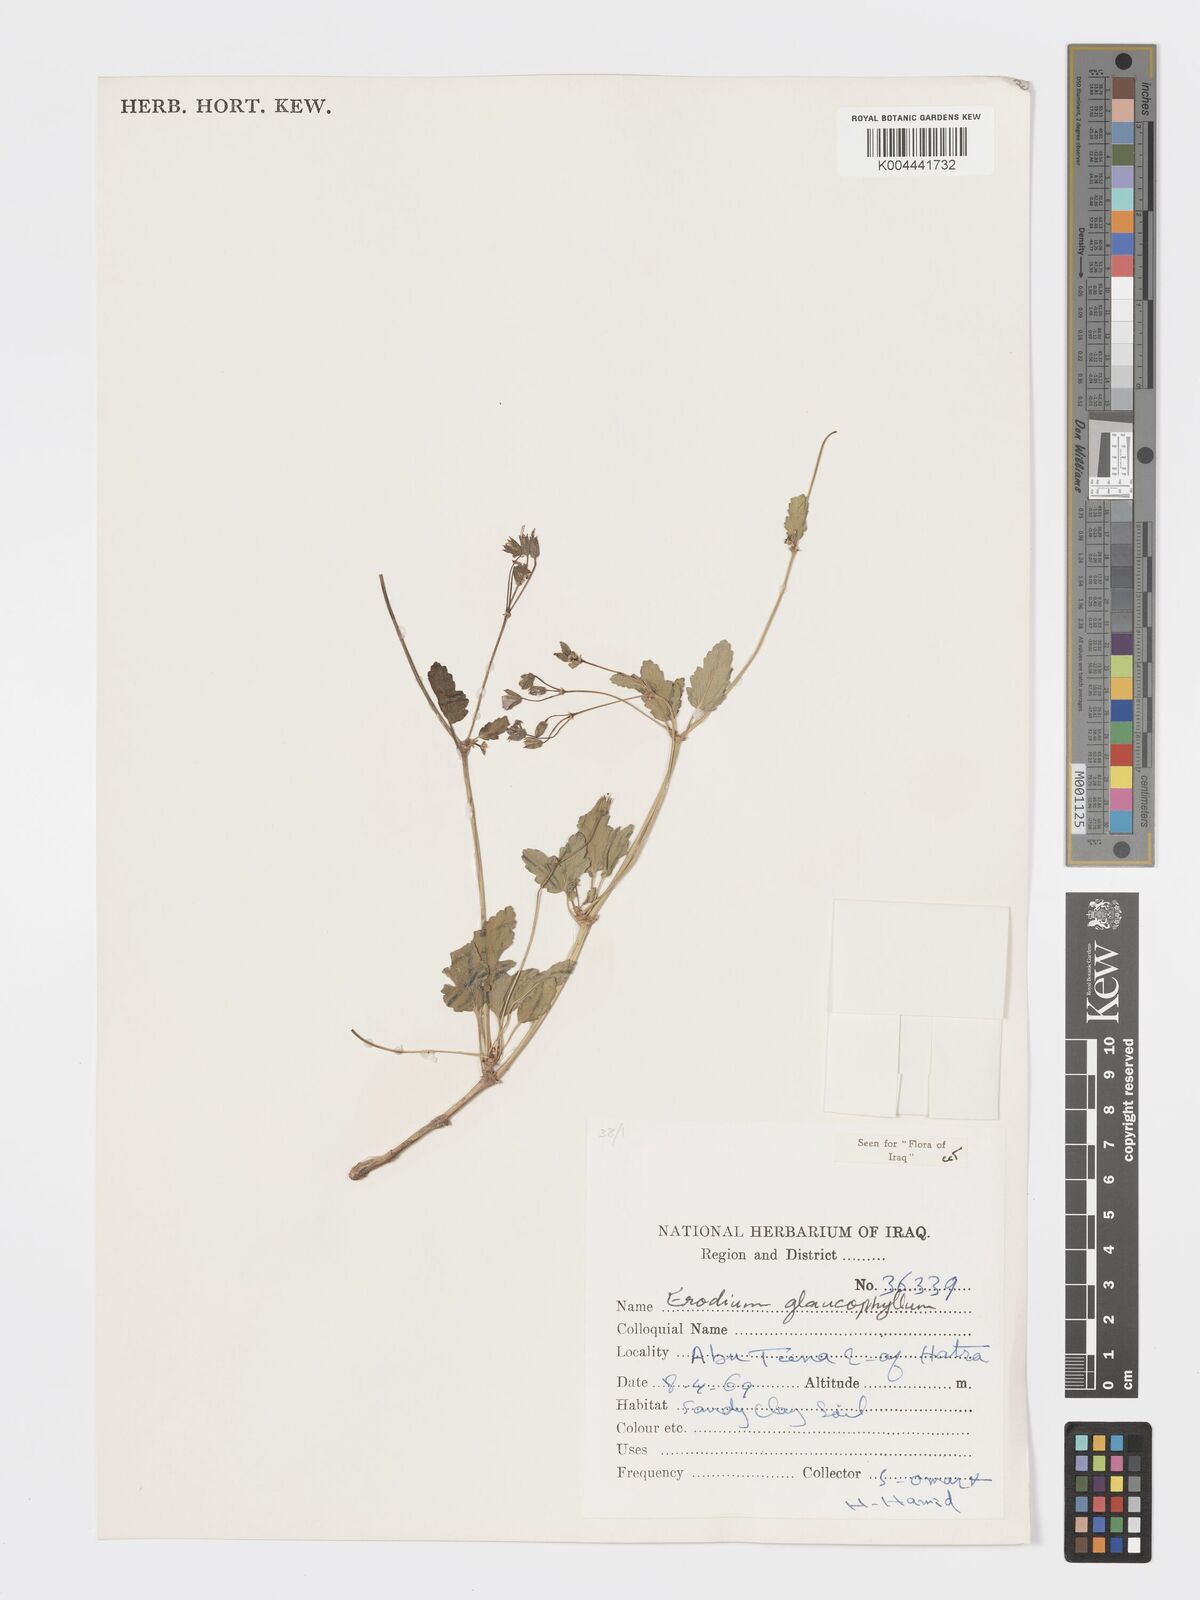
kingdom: Plantae
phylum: Tracheophyta
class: Magnoliopsida
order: Geraniales
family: Geraniaceae
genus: Erodium
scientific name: Erodium glaucophyllum
